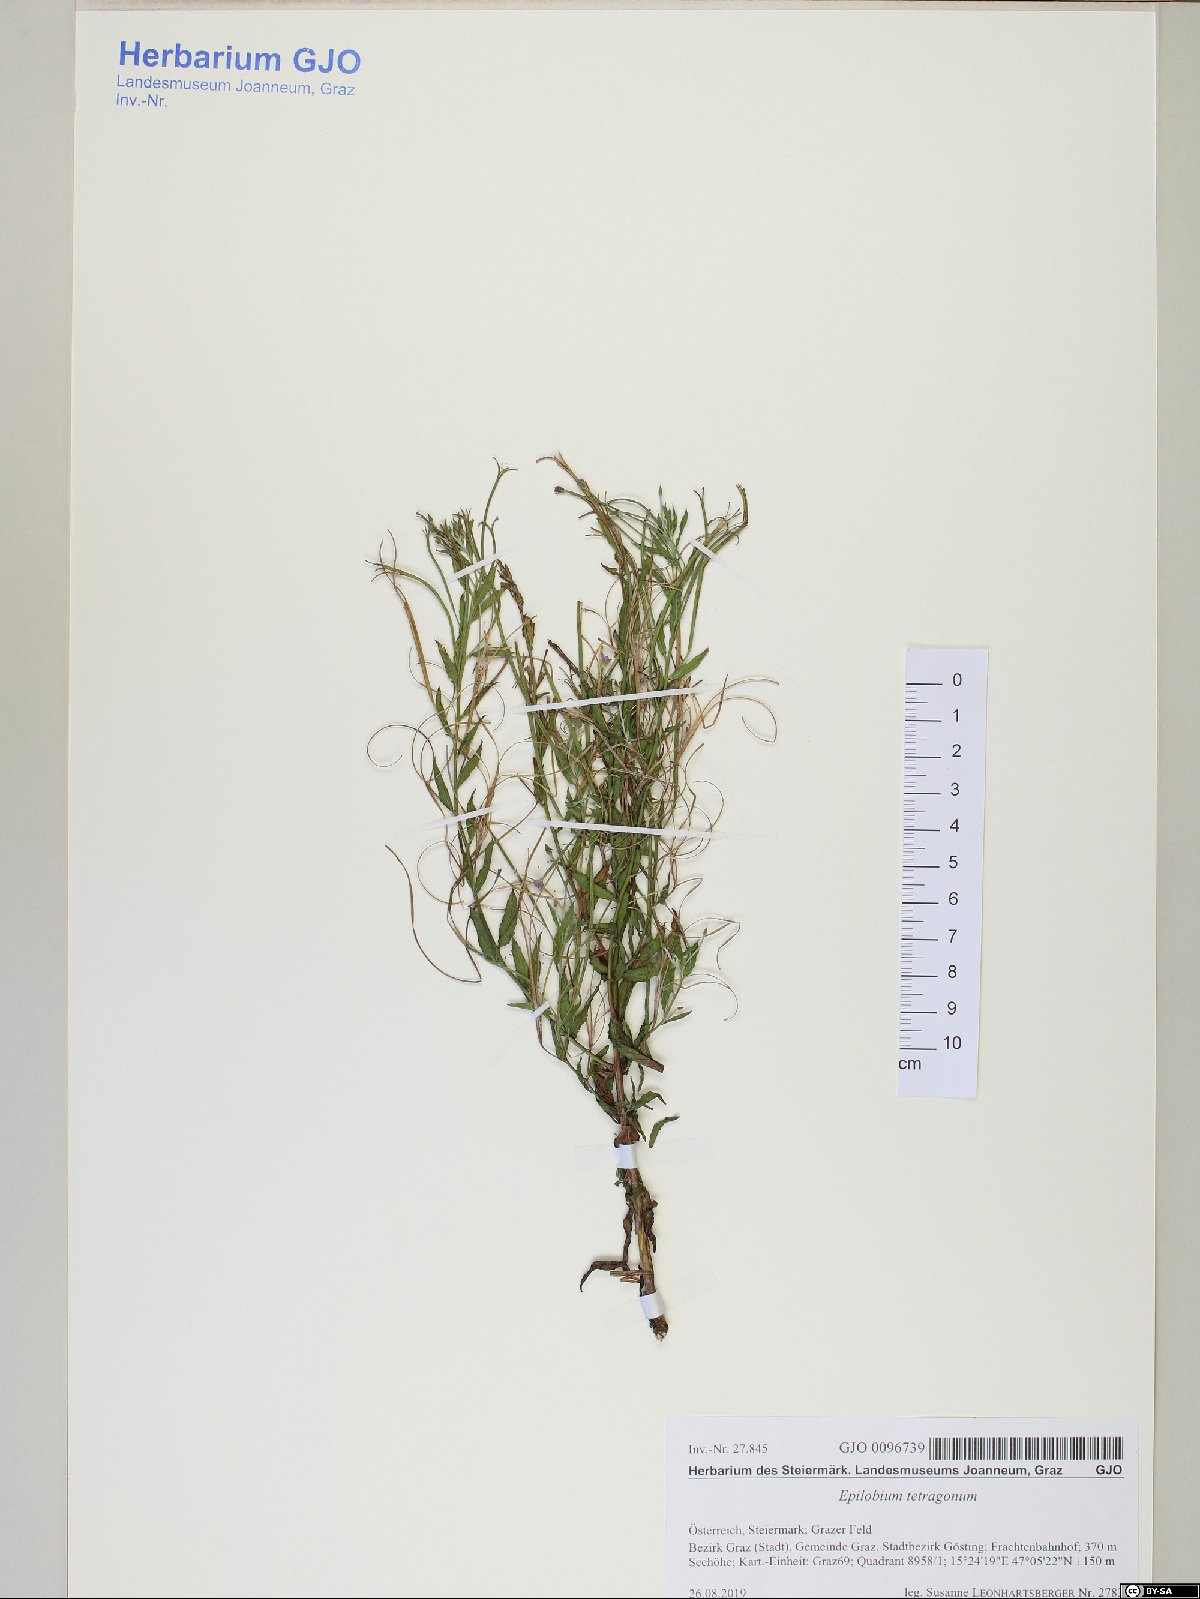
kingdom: Plantae
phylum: Tracheophyta
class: Magnoliopsida
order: Myrtales
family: Onagraceae
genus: Epilobium
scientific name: Epilobium tetragonum
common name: Square-stemmed willowherb
